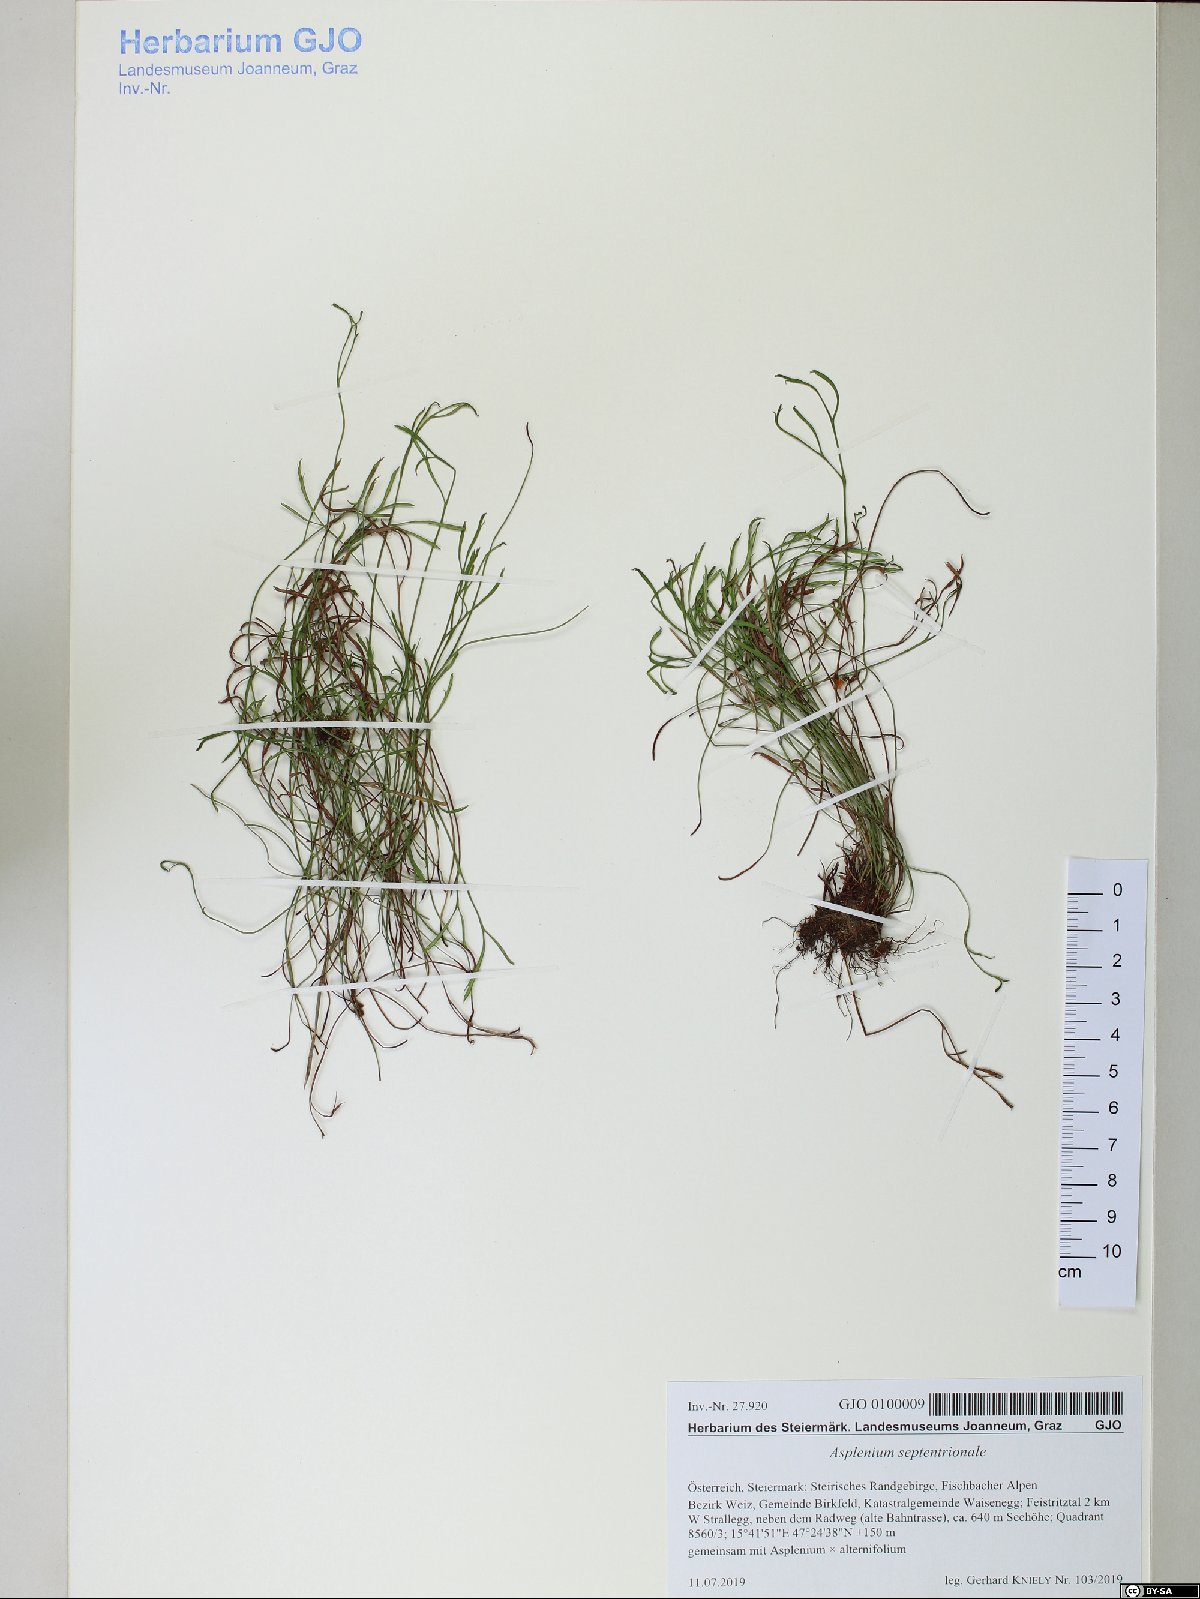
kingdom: Plantae
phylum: Tracheophyta
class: Polypodiopsida
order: Polypodiales
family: Aspleniaceae
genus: Asplenium
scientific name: Asplenium septentrionale
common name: Forked spleenwort
